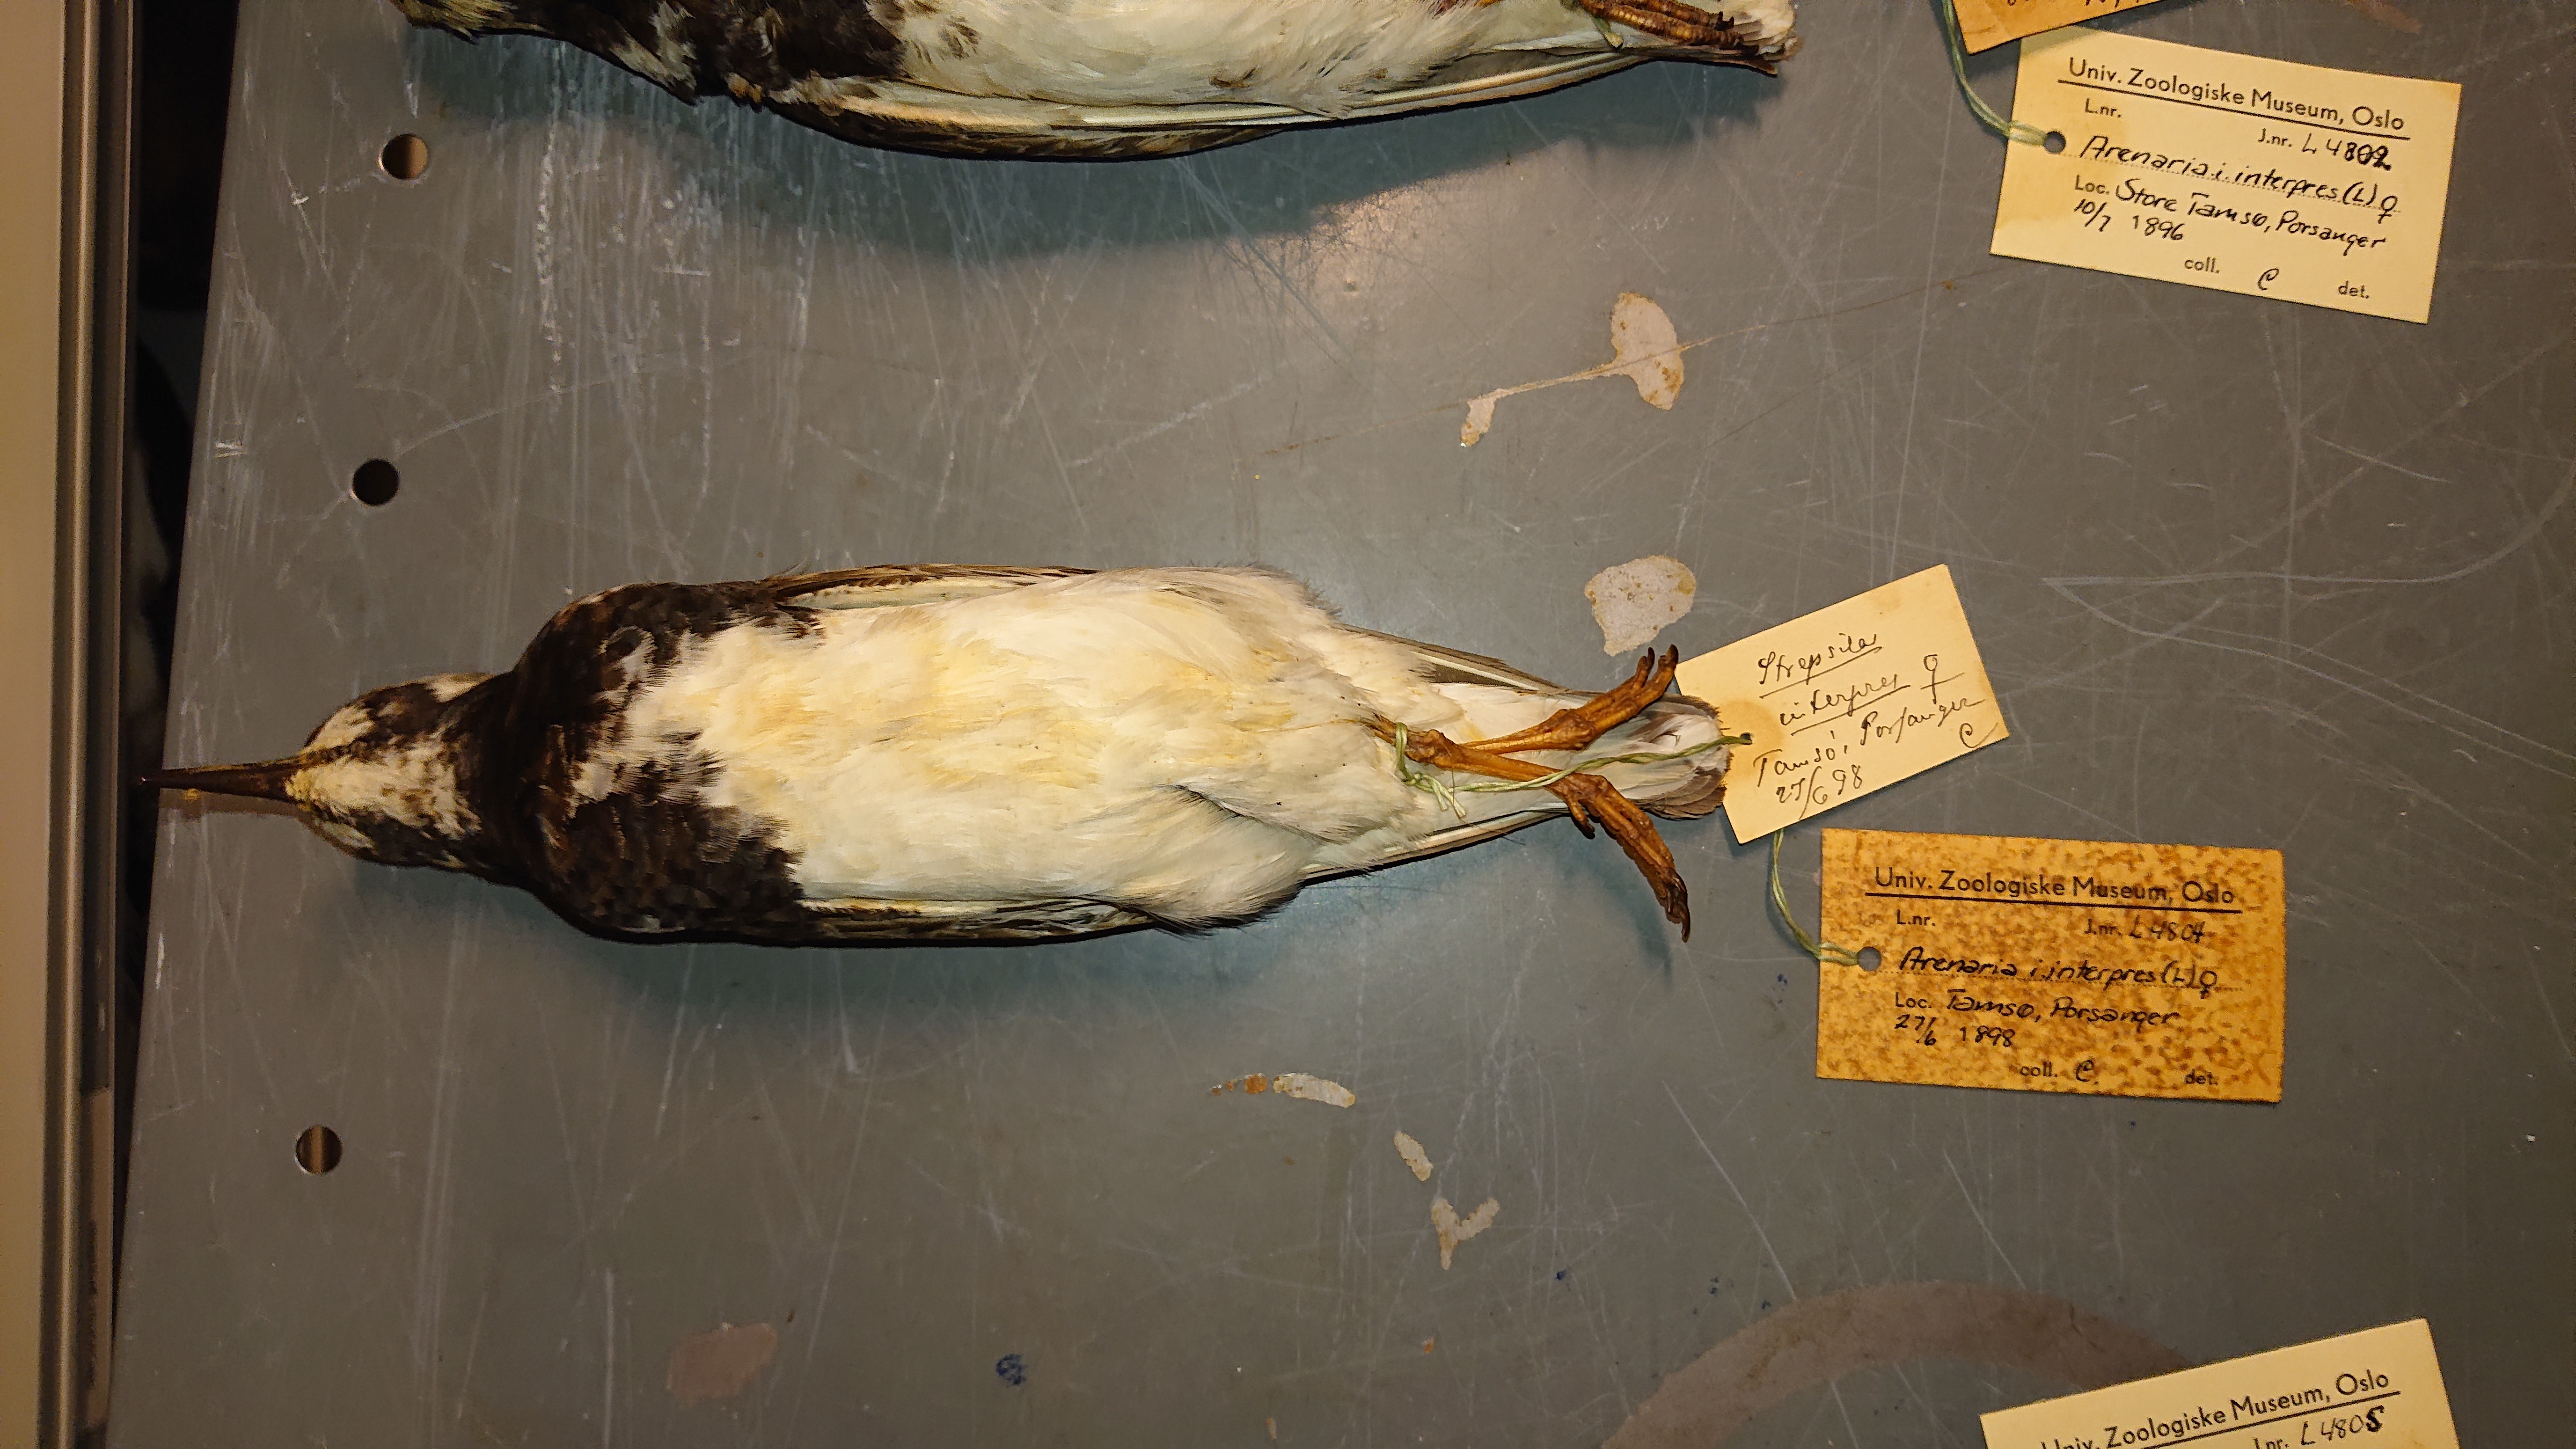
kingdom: Animalia
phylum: Chordata
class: Aves
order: Charadriiformes
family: Scolopacidae
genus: Arenaria
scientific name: Arenaria interpres
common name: Ruddy turnstone
